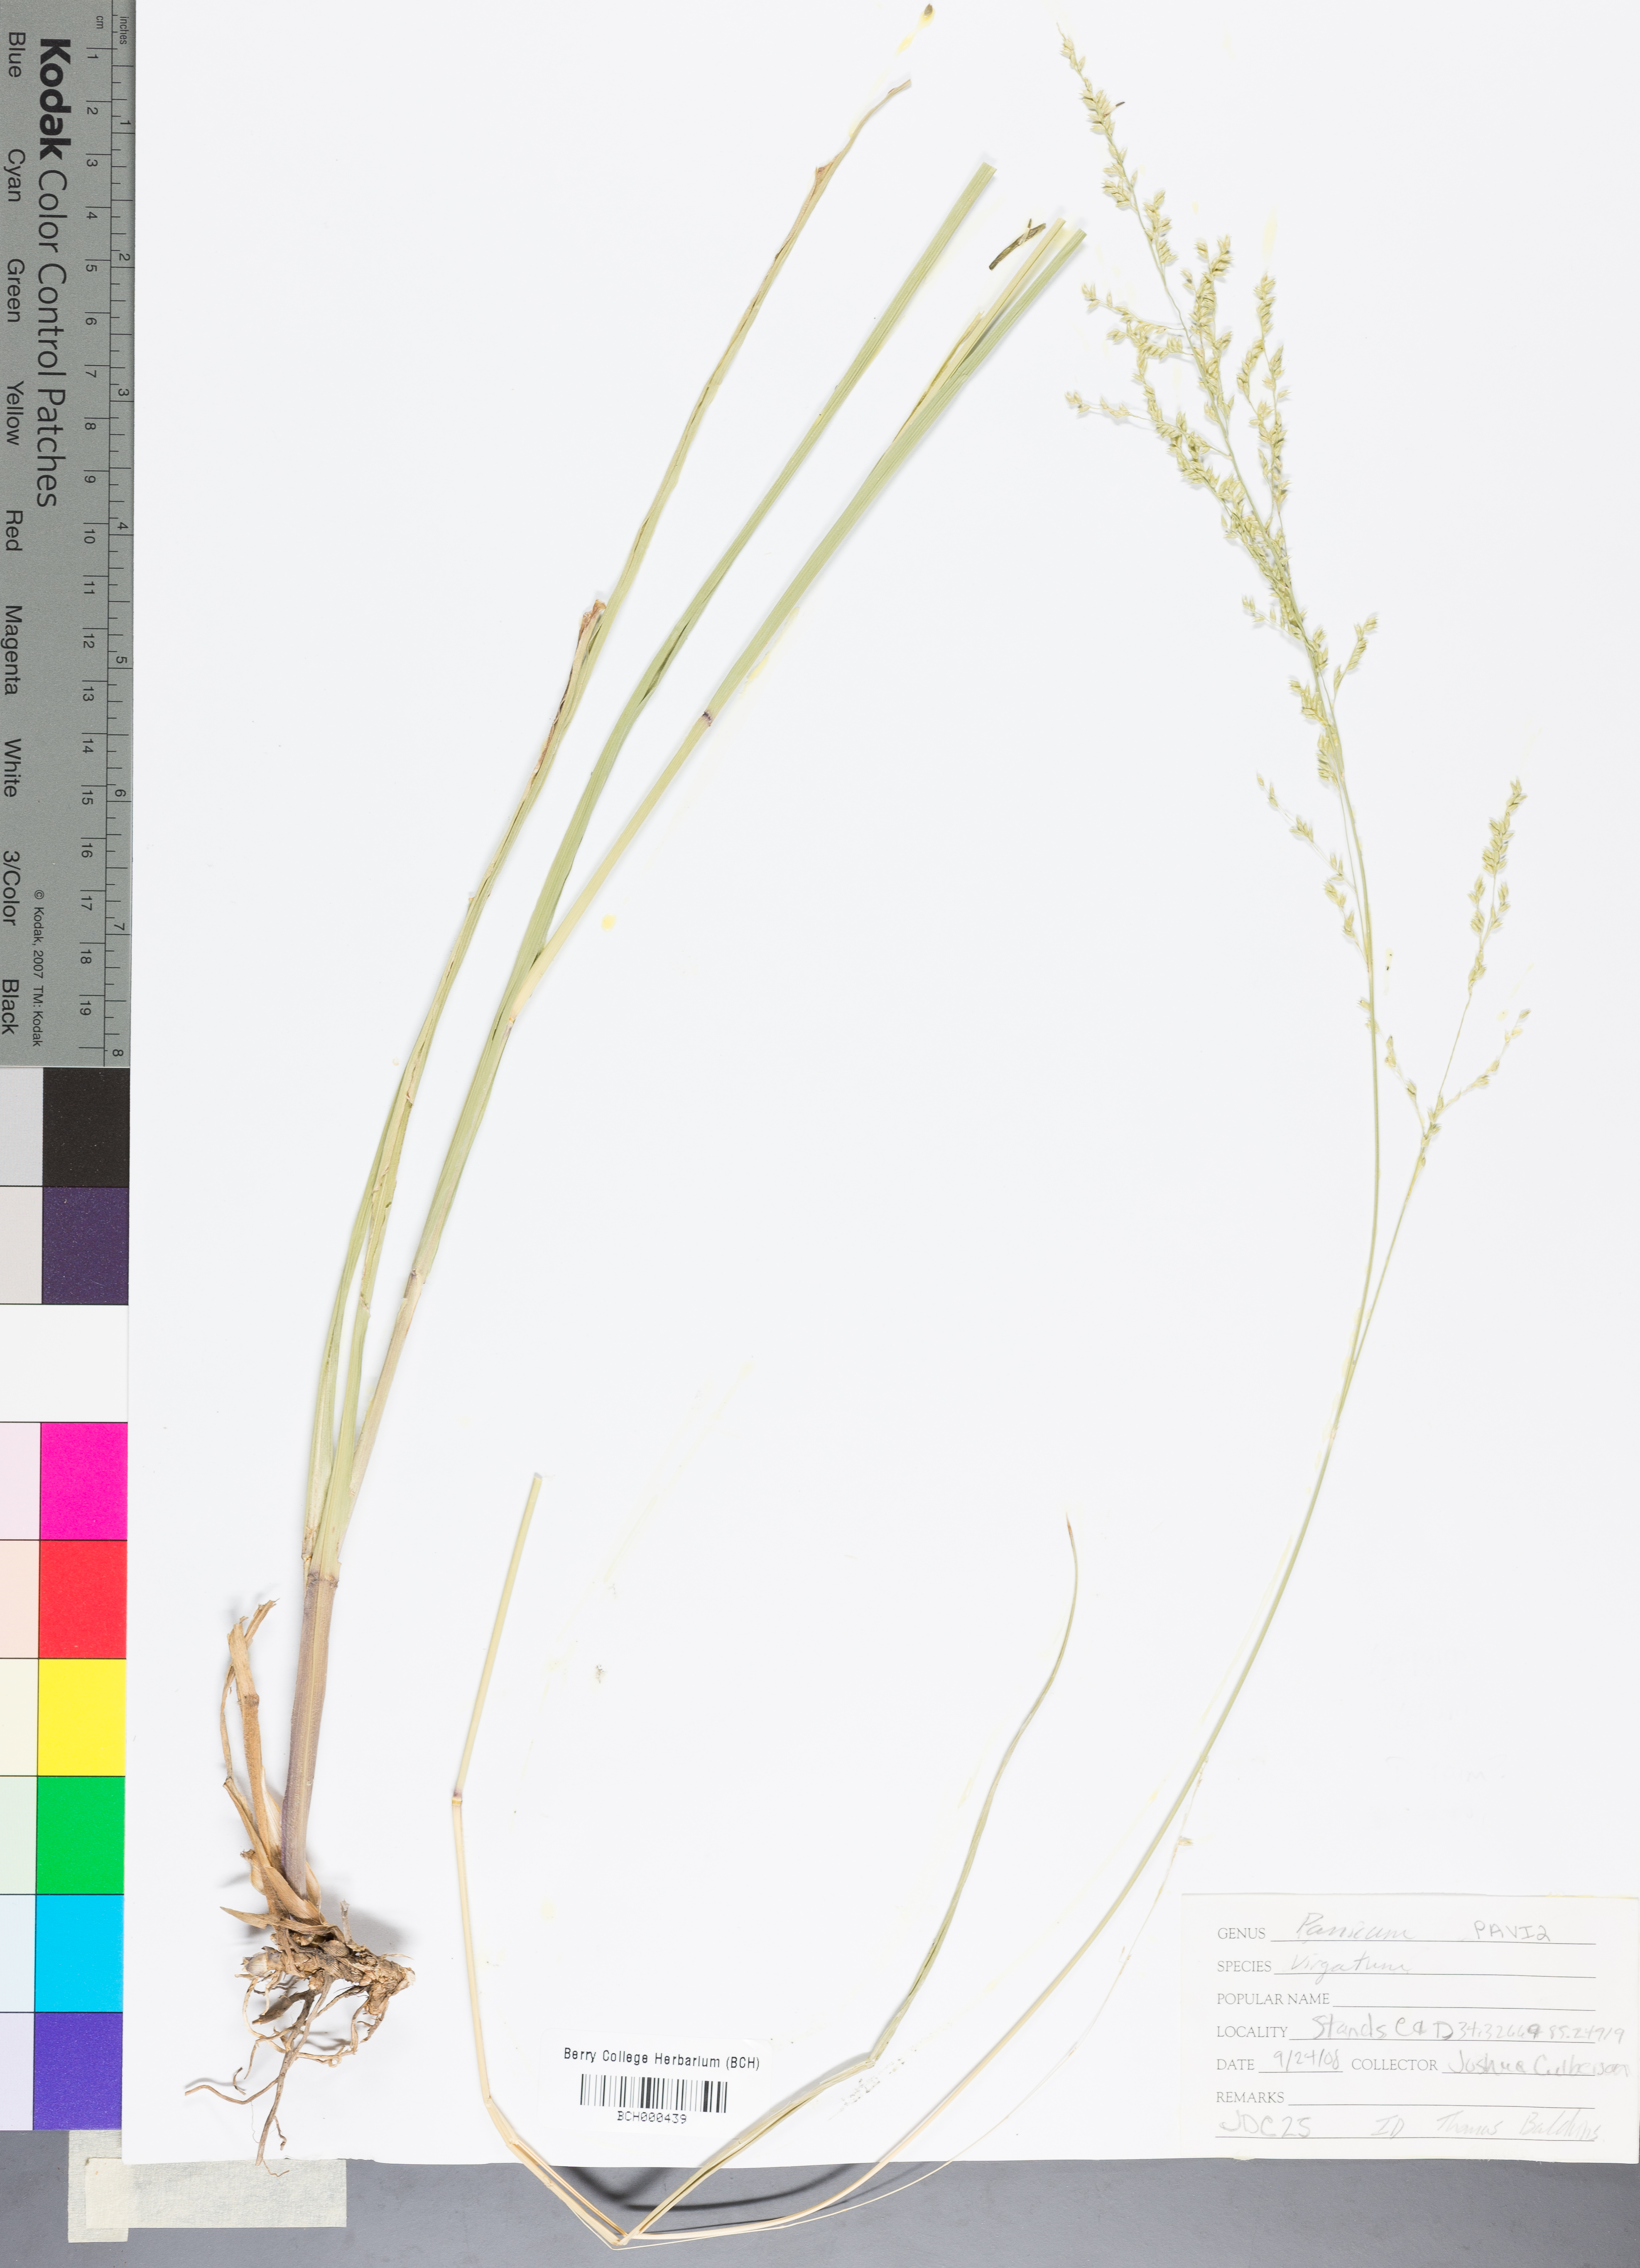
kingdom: Plantae
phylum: Tracheophyta
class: Liliopsida
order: Poales
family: Poaceae
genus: Panicum
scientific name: Panicum virgatum
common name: Switchgrass
